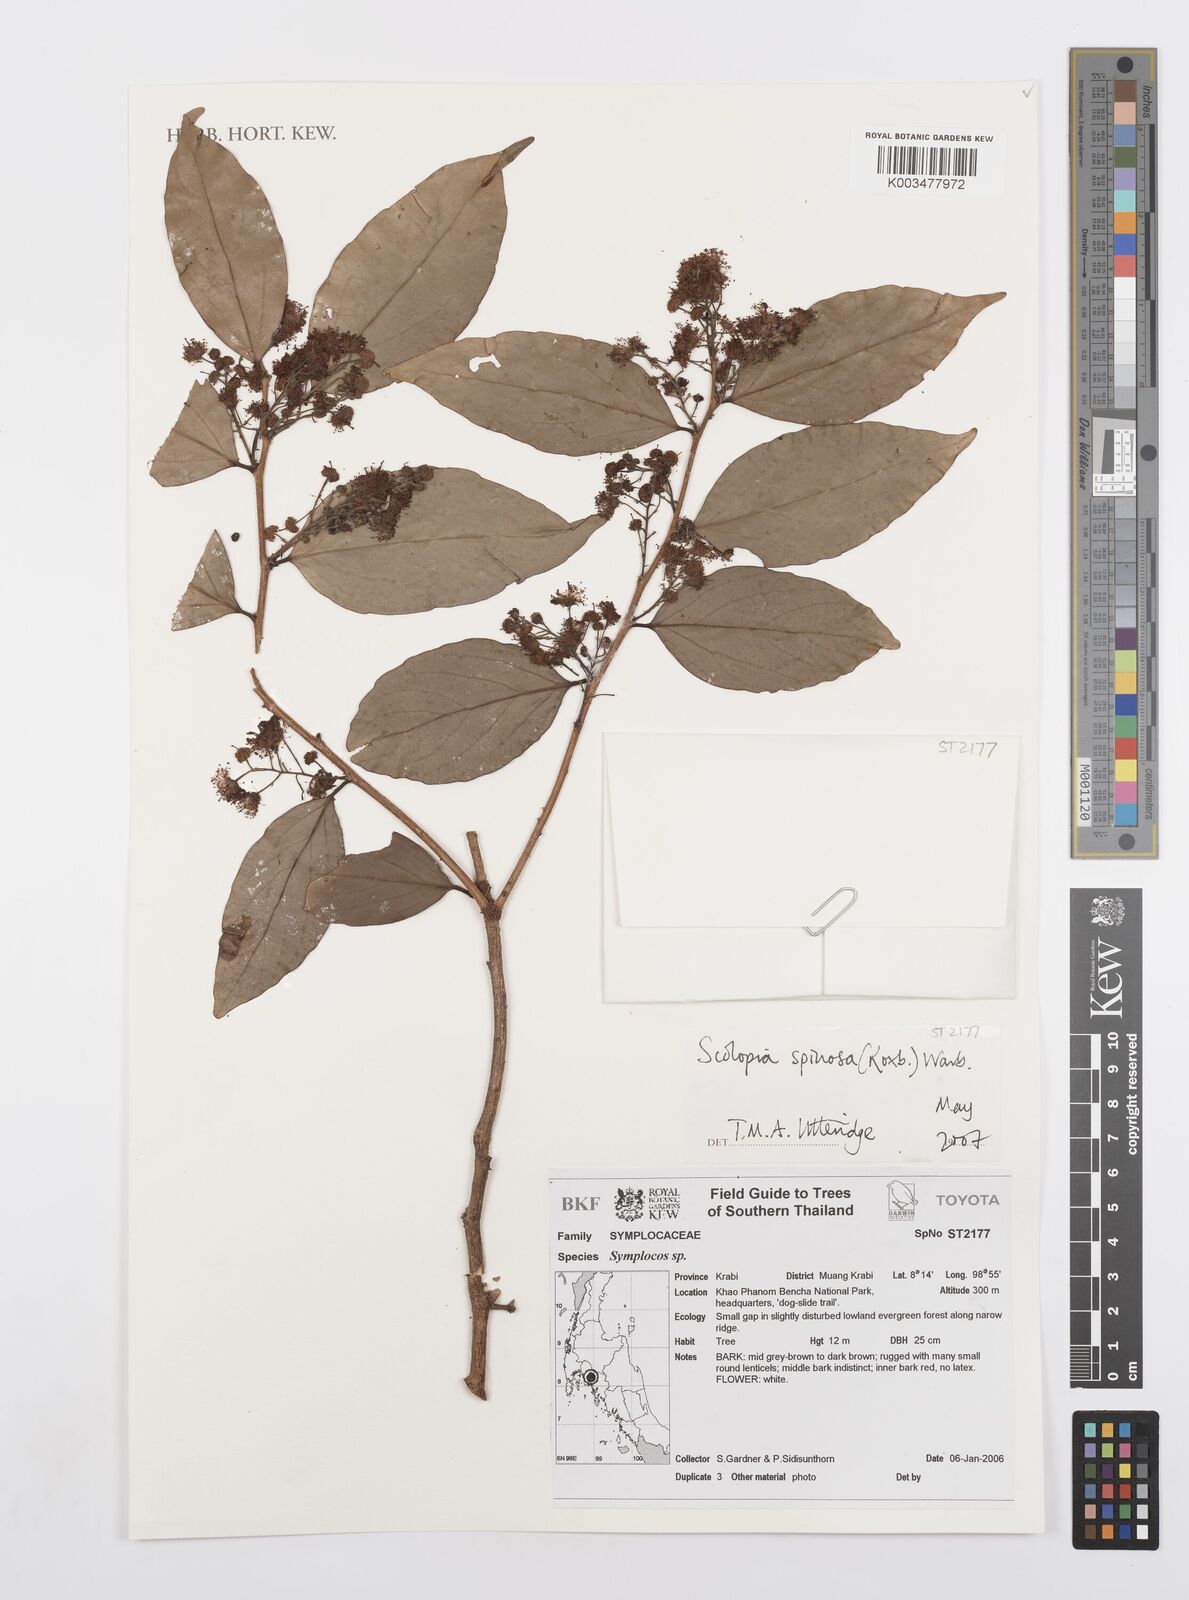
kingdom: Plantae
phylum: Tracheophyta
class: Magnoliopsida
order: Malpighiales
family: Salicaceae
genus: Scolopia
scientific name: Scolopia spinescens
